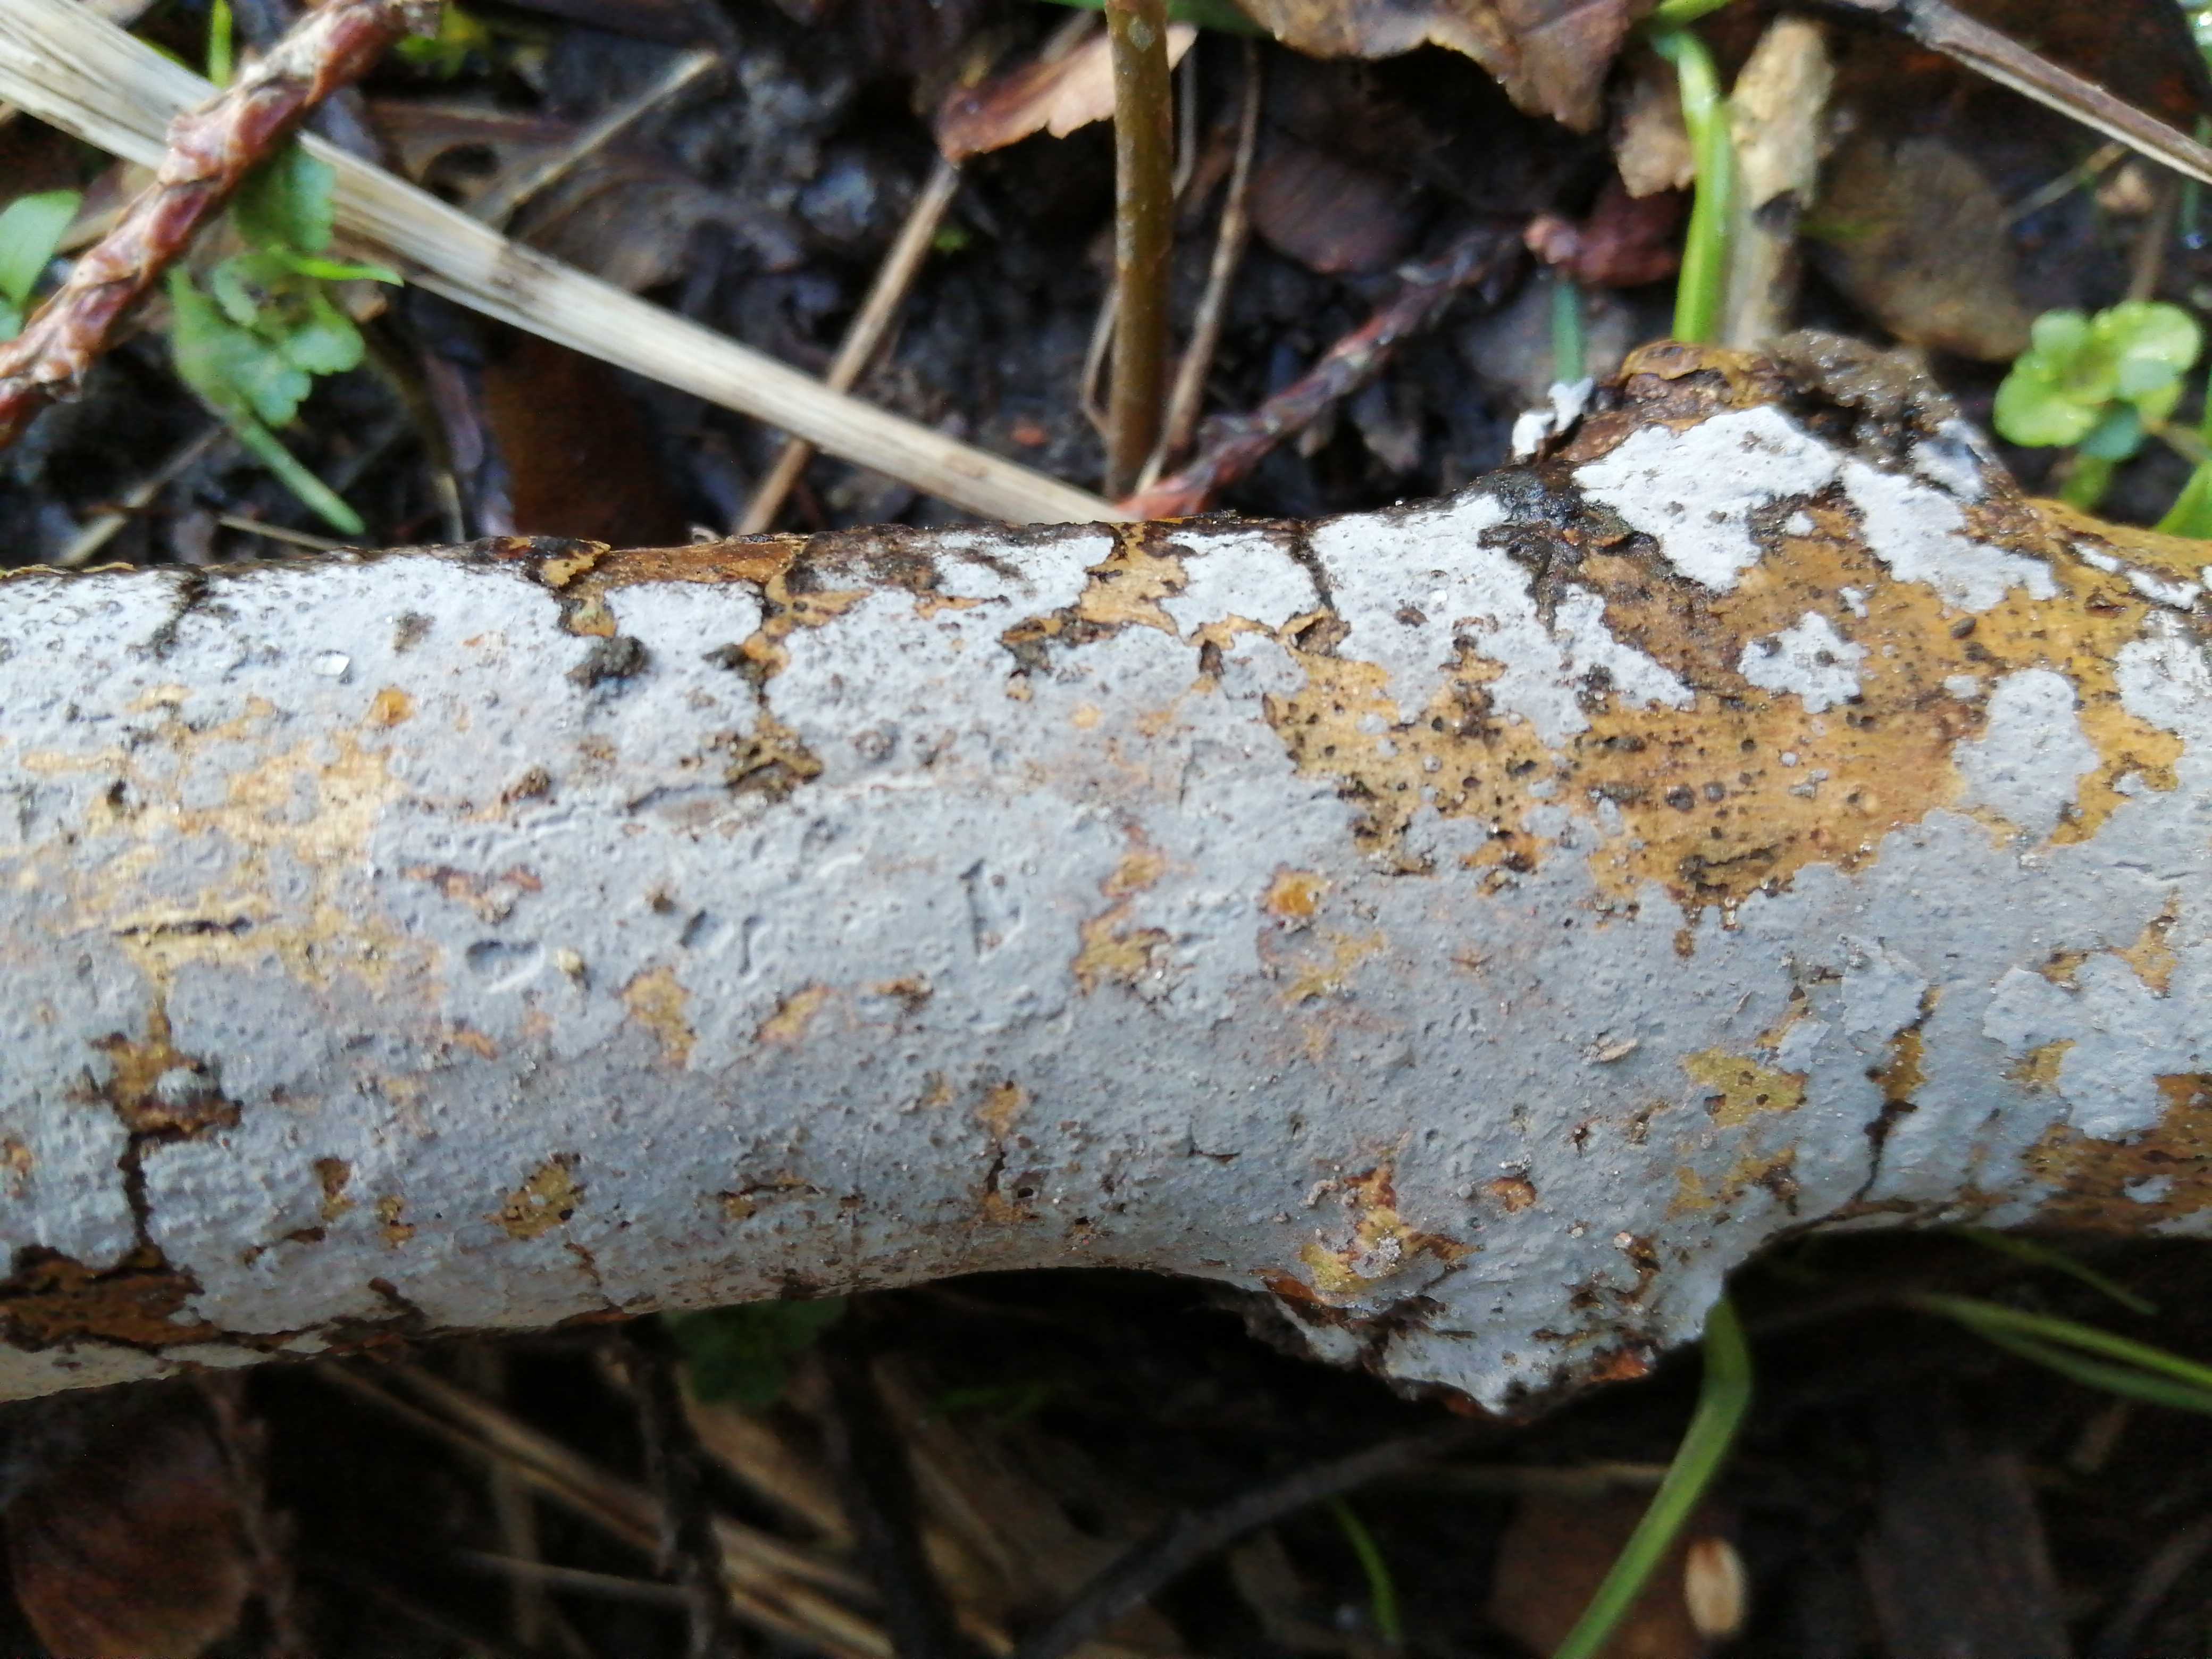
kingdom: Fungi
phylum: Basidiomycota
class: Agaricomycetes
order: Russulales
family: Peniophoraceae
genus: Peniophora
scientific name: Peniophora
